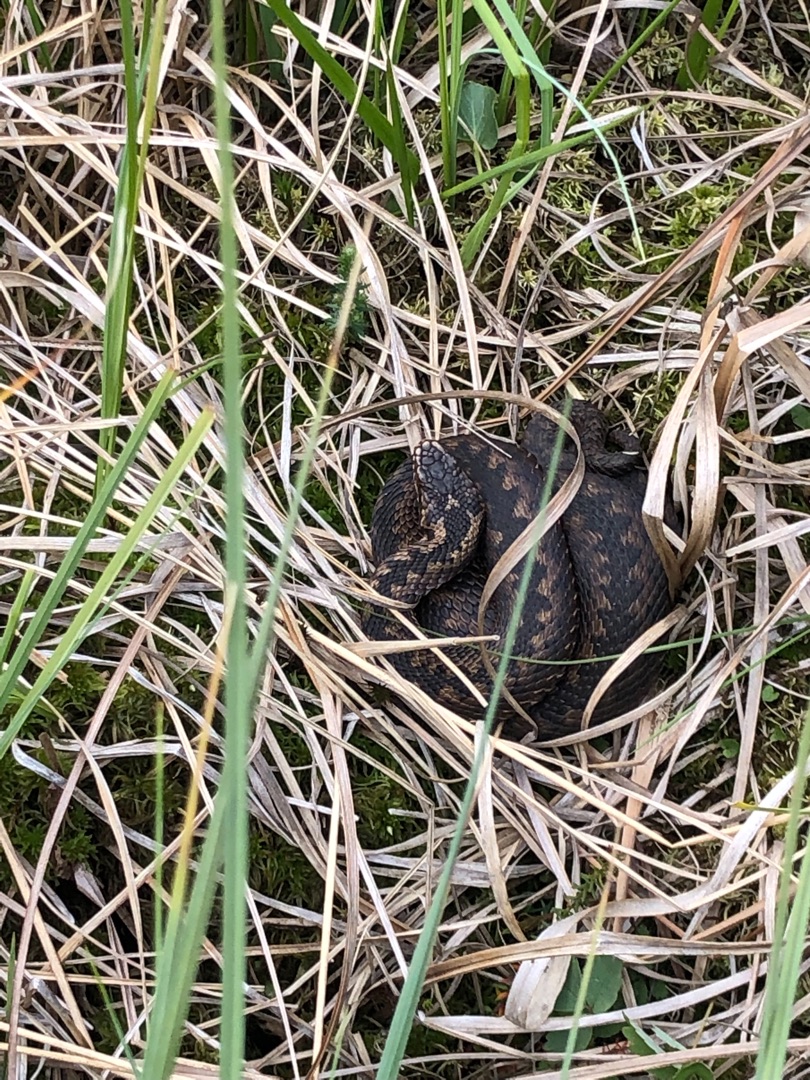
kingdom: Animalia
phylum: Chordata
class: Squamata
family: Viperidae
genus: Vipera
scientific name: Vipera berus
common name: Hugorm
